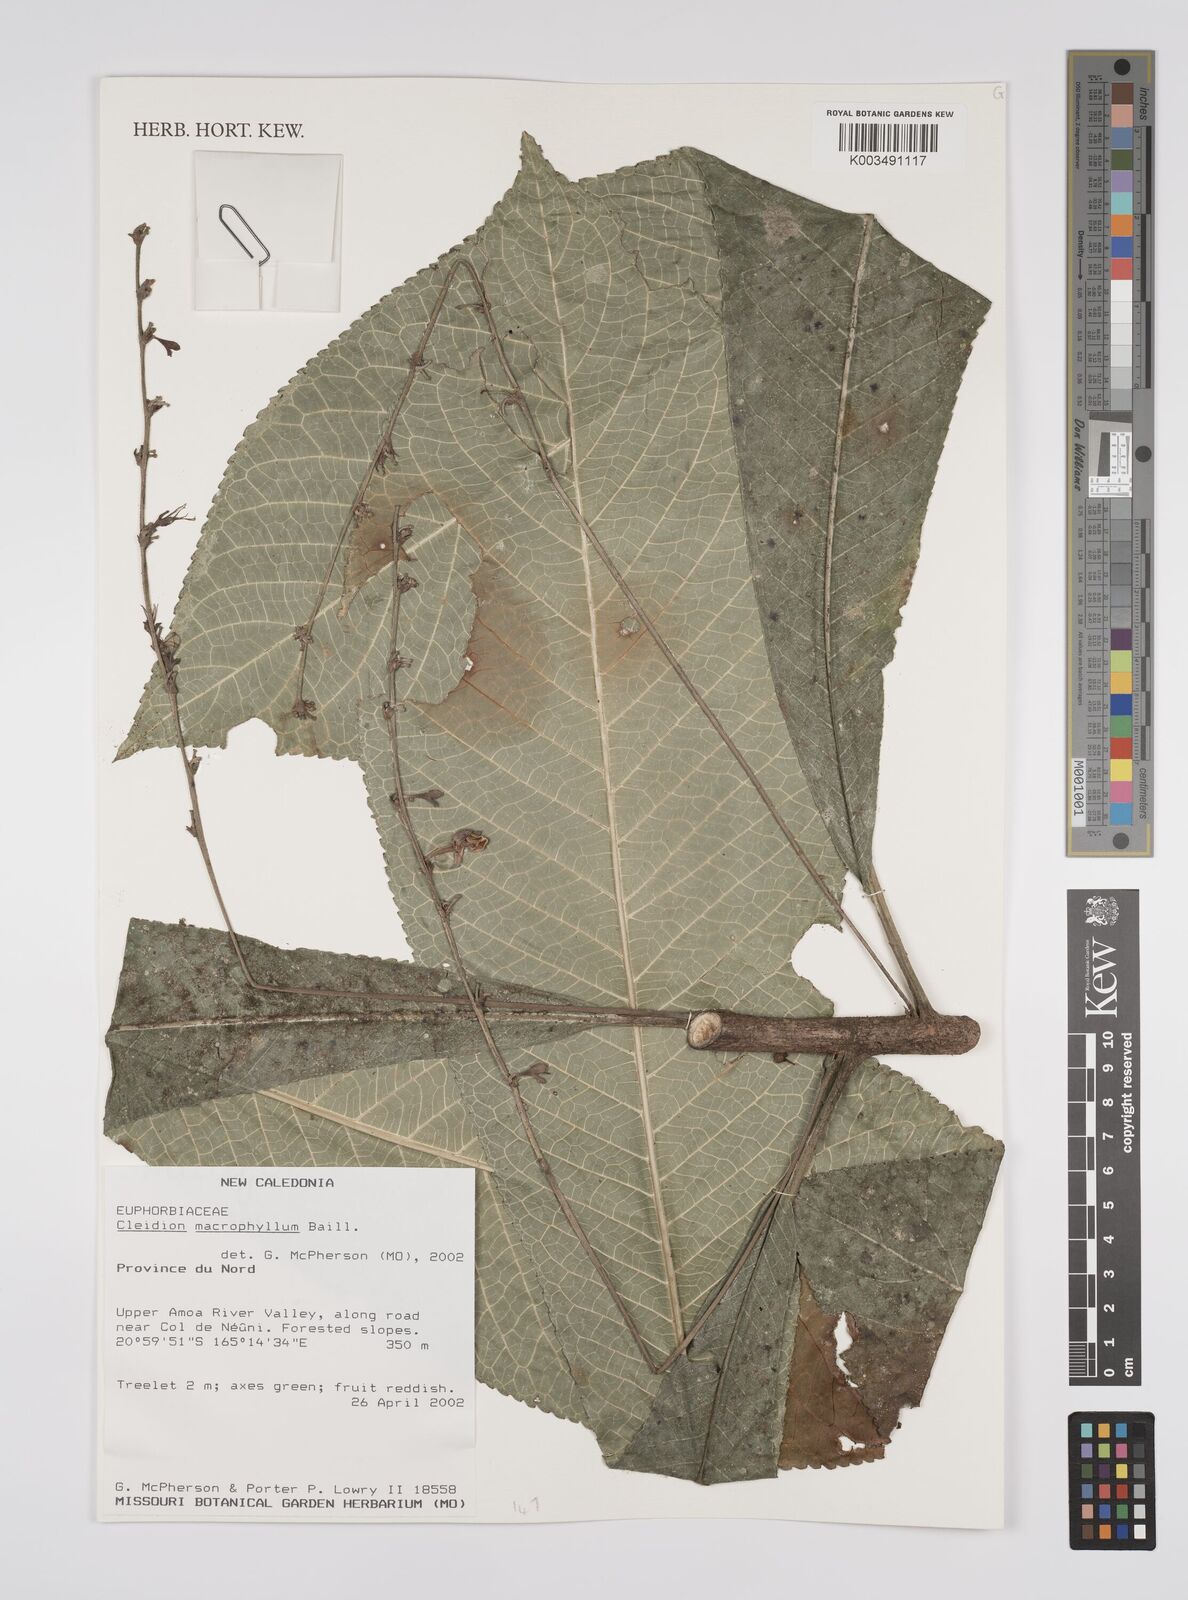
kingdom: Plantae
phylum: Tracheophyta
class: Magnoliopsida
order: Malpighiales
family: Euphorbiaceae
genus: Cleidion
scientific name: Cleidion macrophyllum
